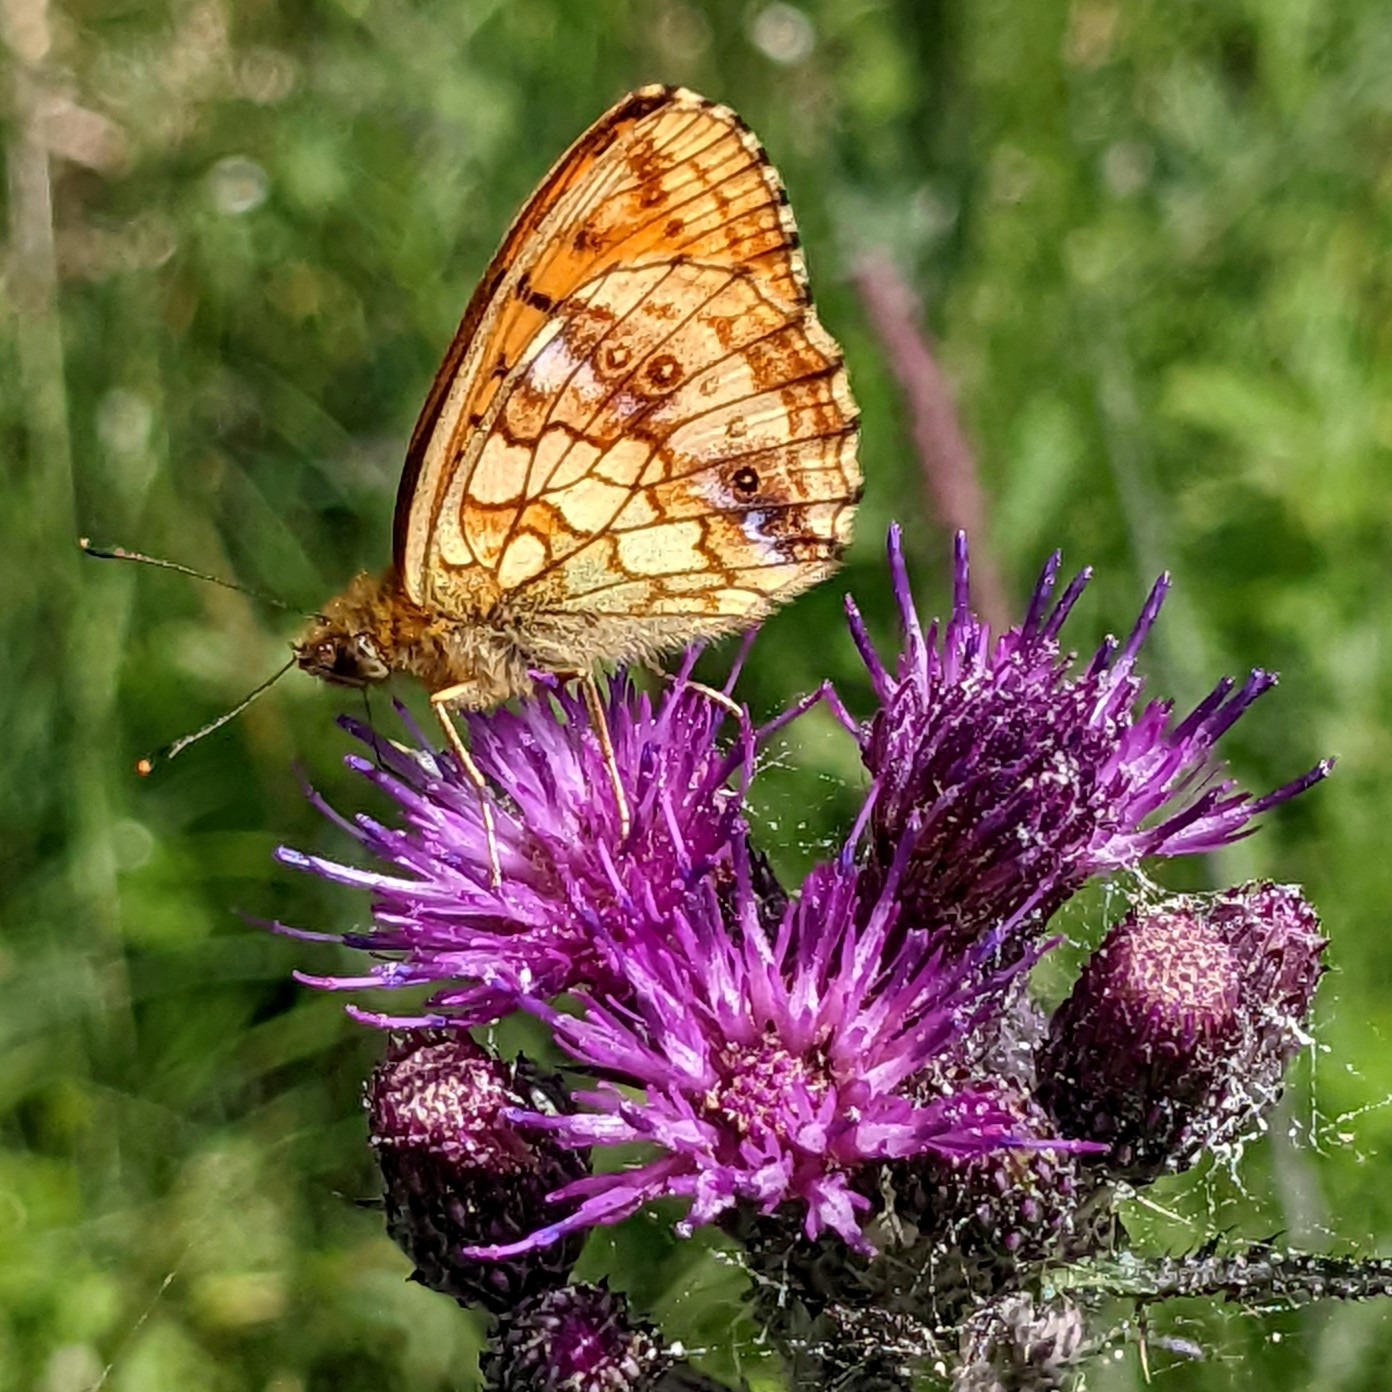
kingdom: Animalia
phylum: Arthropoda
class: Insecta
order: Lepidoptera
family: Nymphalidae
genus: Brenthis
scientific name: Brenthis ino
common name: Engperlemorsommerfugl
